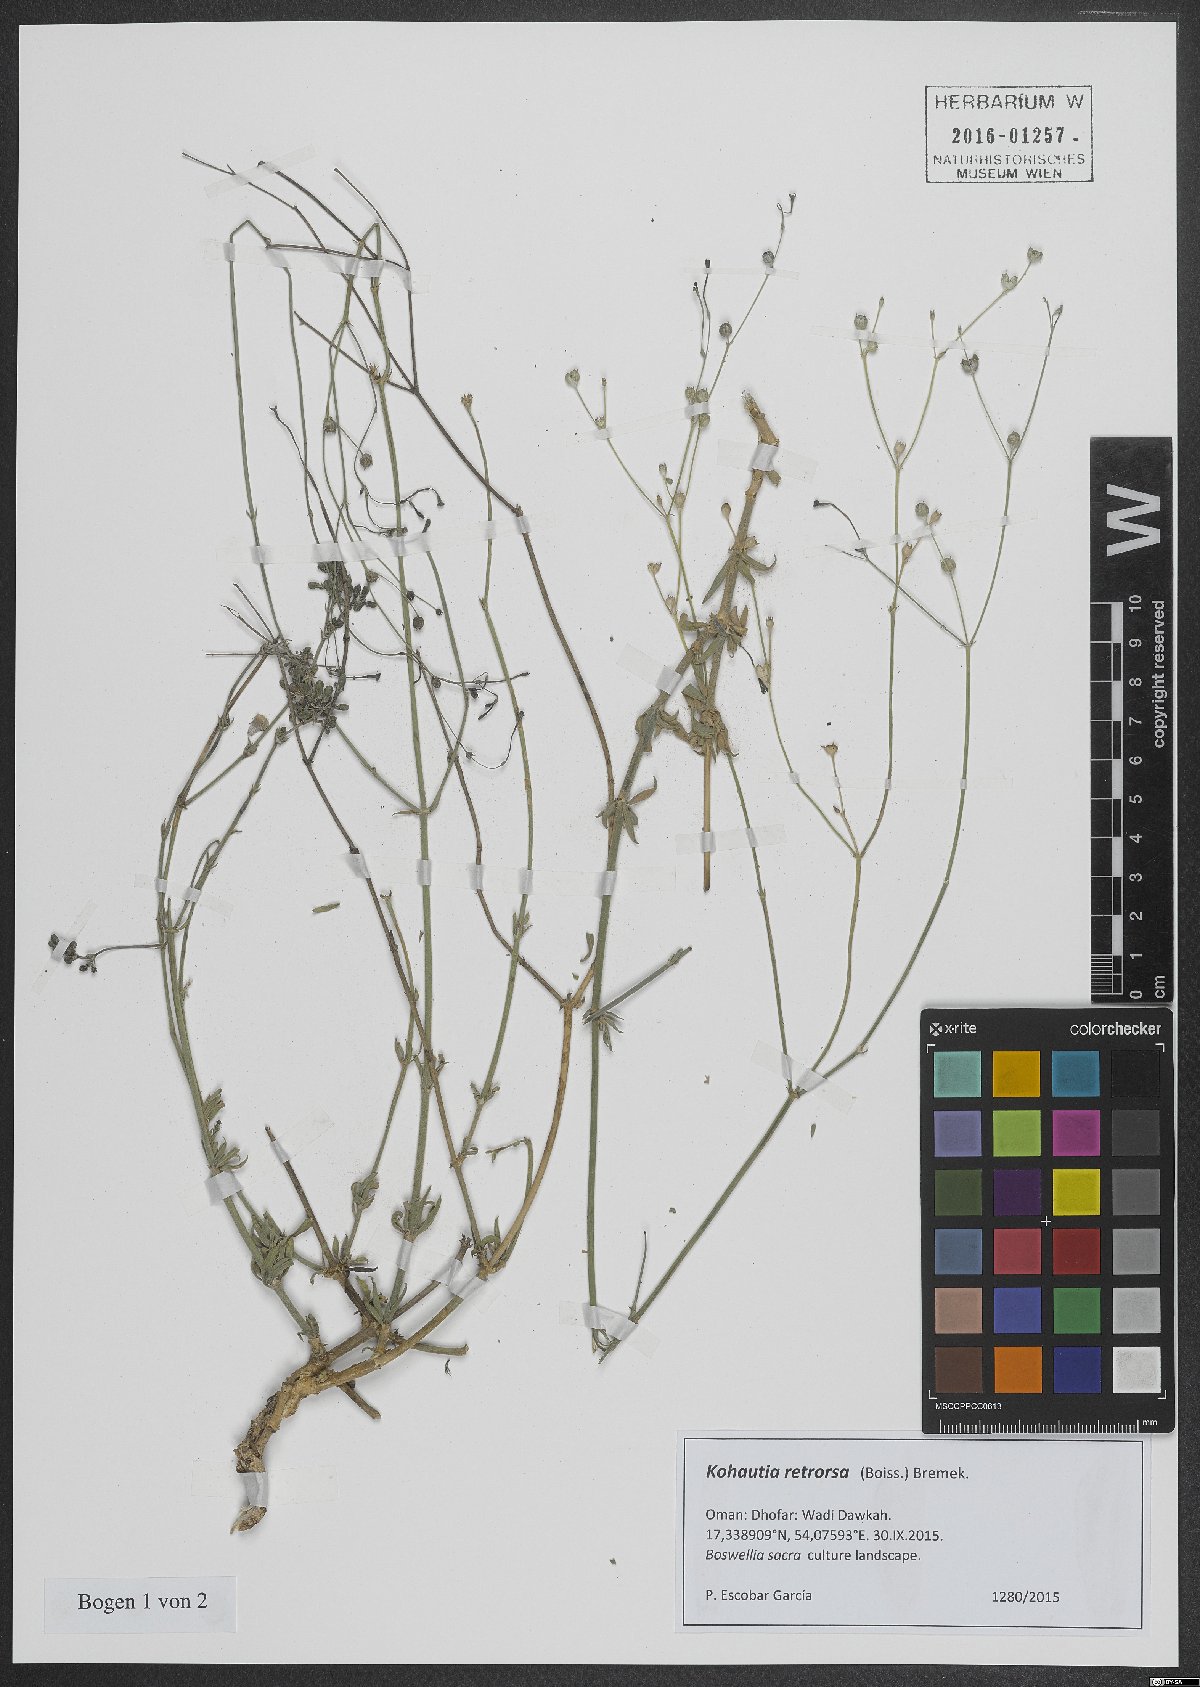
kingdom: Plantae
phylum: Tracheophyta
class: Magnoliopsida
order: Gentianales
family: Rubiaceae
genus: Kohautia
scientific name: Kohautia retrorsa
